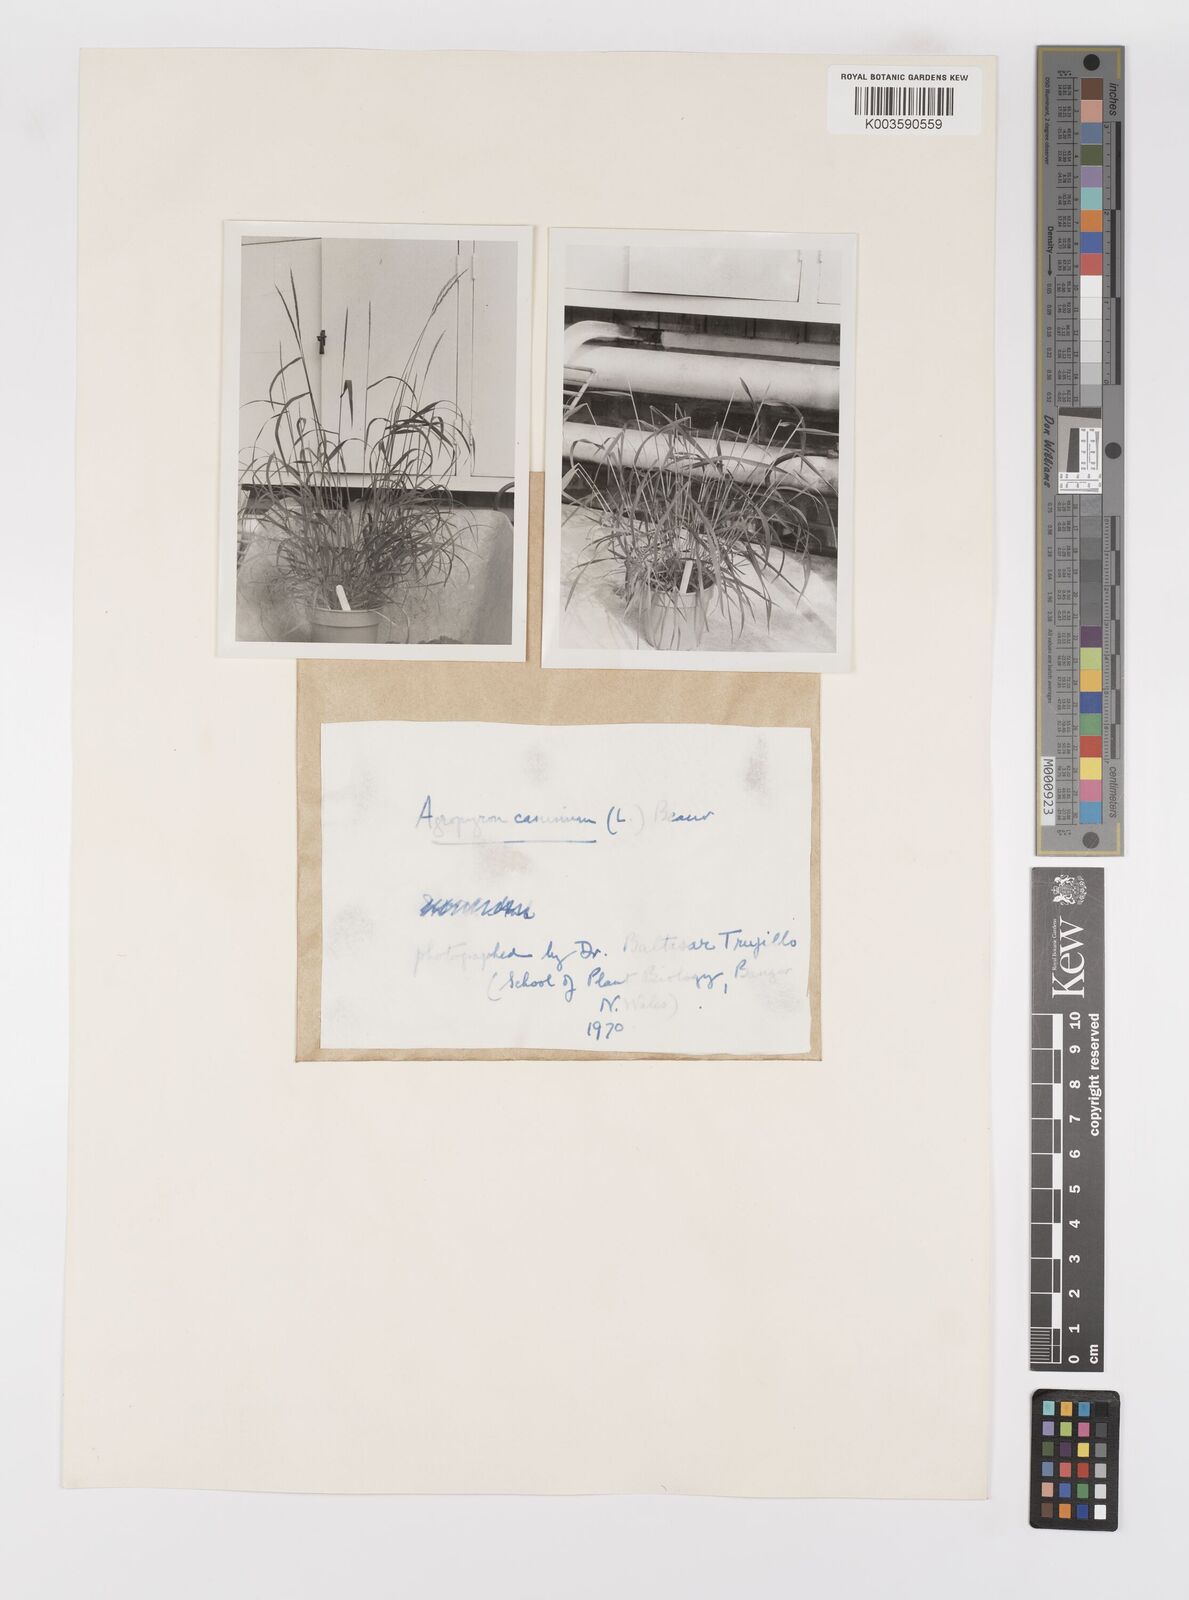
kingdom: Plantae
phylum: Tracheophyta
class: Liliopsida
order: Poales
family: Poaceae
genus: Elymus
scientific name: Elymus caninus
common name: Bearded couch
